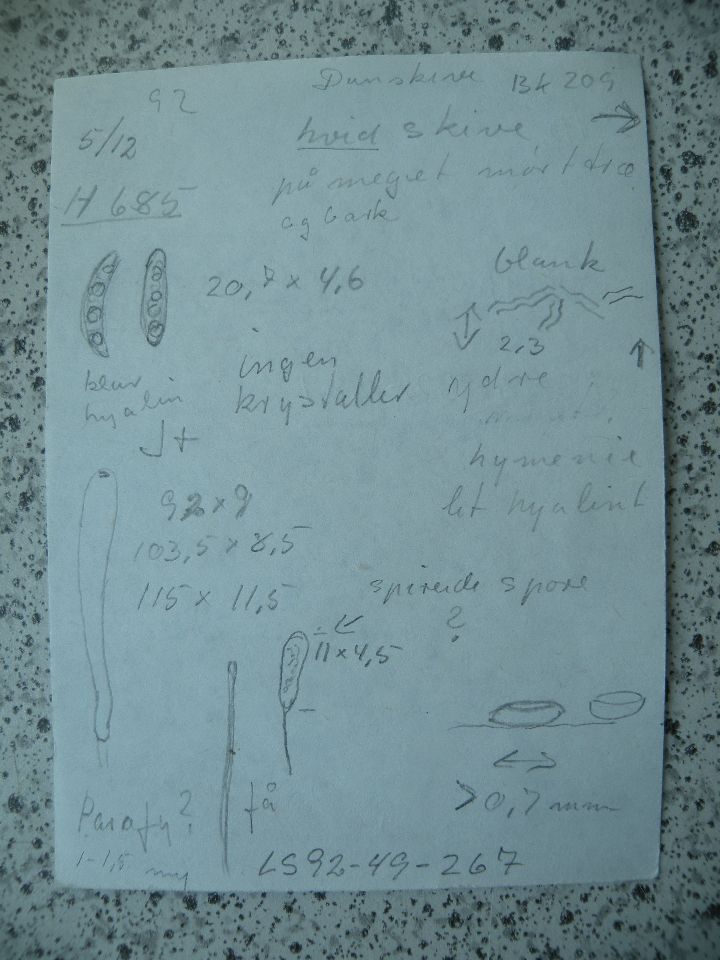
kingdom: Fungi
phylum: Ascomycota
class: Leotiomycetes
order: Helotiales
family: Hyaloscyphaceae
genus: Polydesmia
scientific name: Polydesmia pruinosa
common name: dunskive
